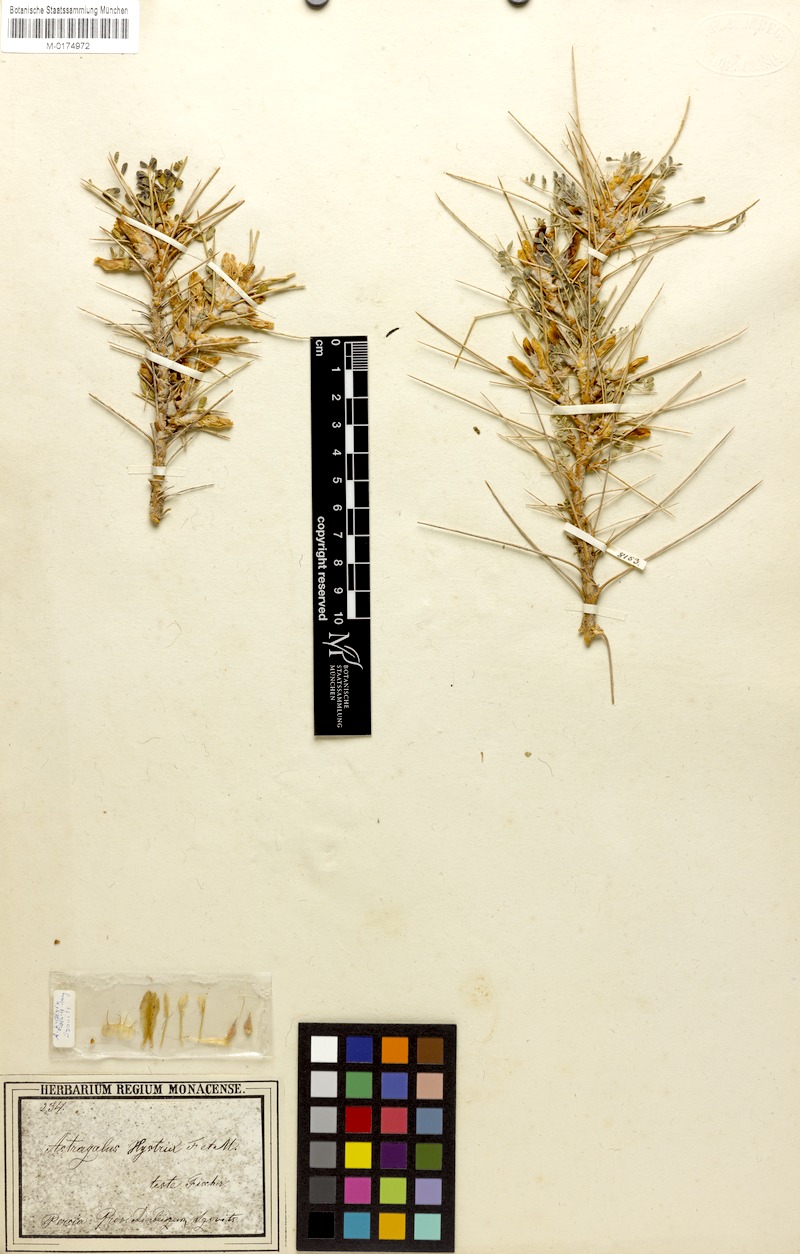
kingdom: Plantae
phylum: Tracheophyta
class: Magnoliopsida
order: Fabales
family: Fabaceae
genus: Astragalus
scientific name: Astragalus hystrix
